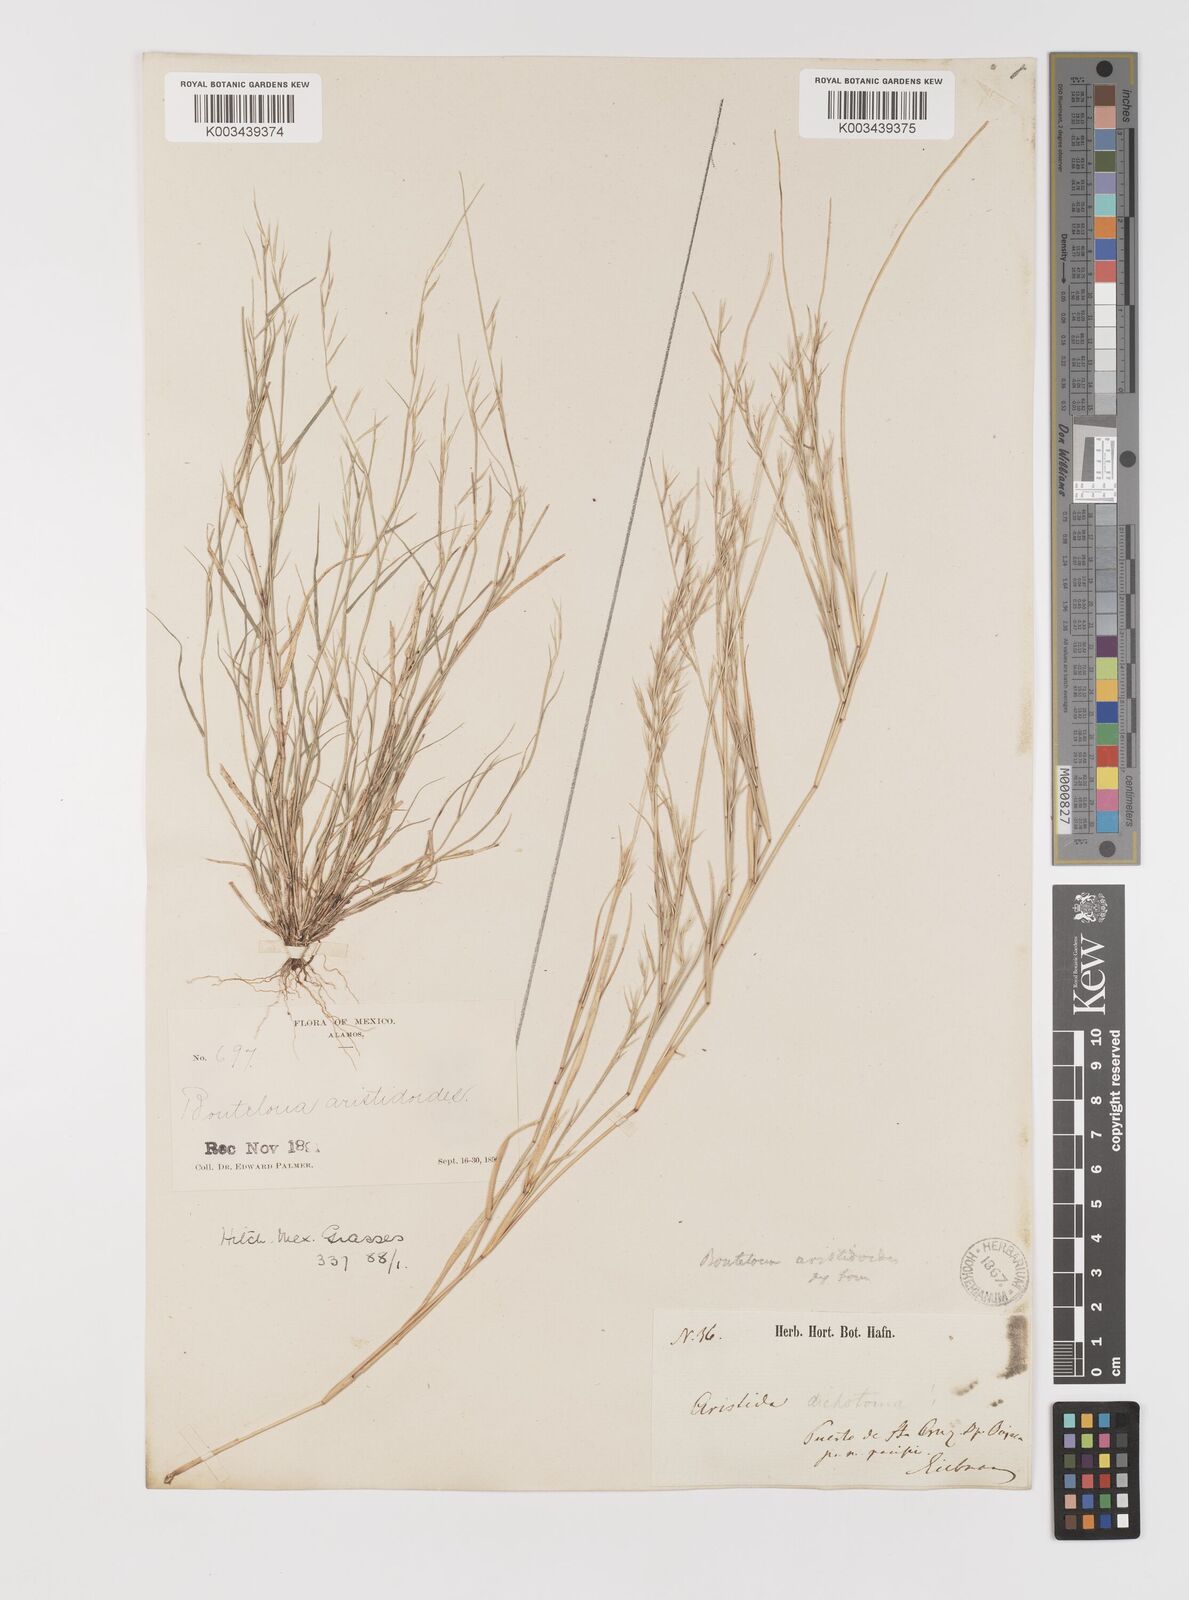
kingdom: Plantae
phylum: Tracheophyta
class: Liliopsida
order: Poales
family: Poaceae
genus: Bouteloua
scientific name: Bouteloua aristidoides
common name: Needle grama
